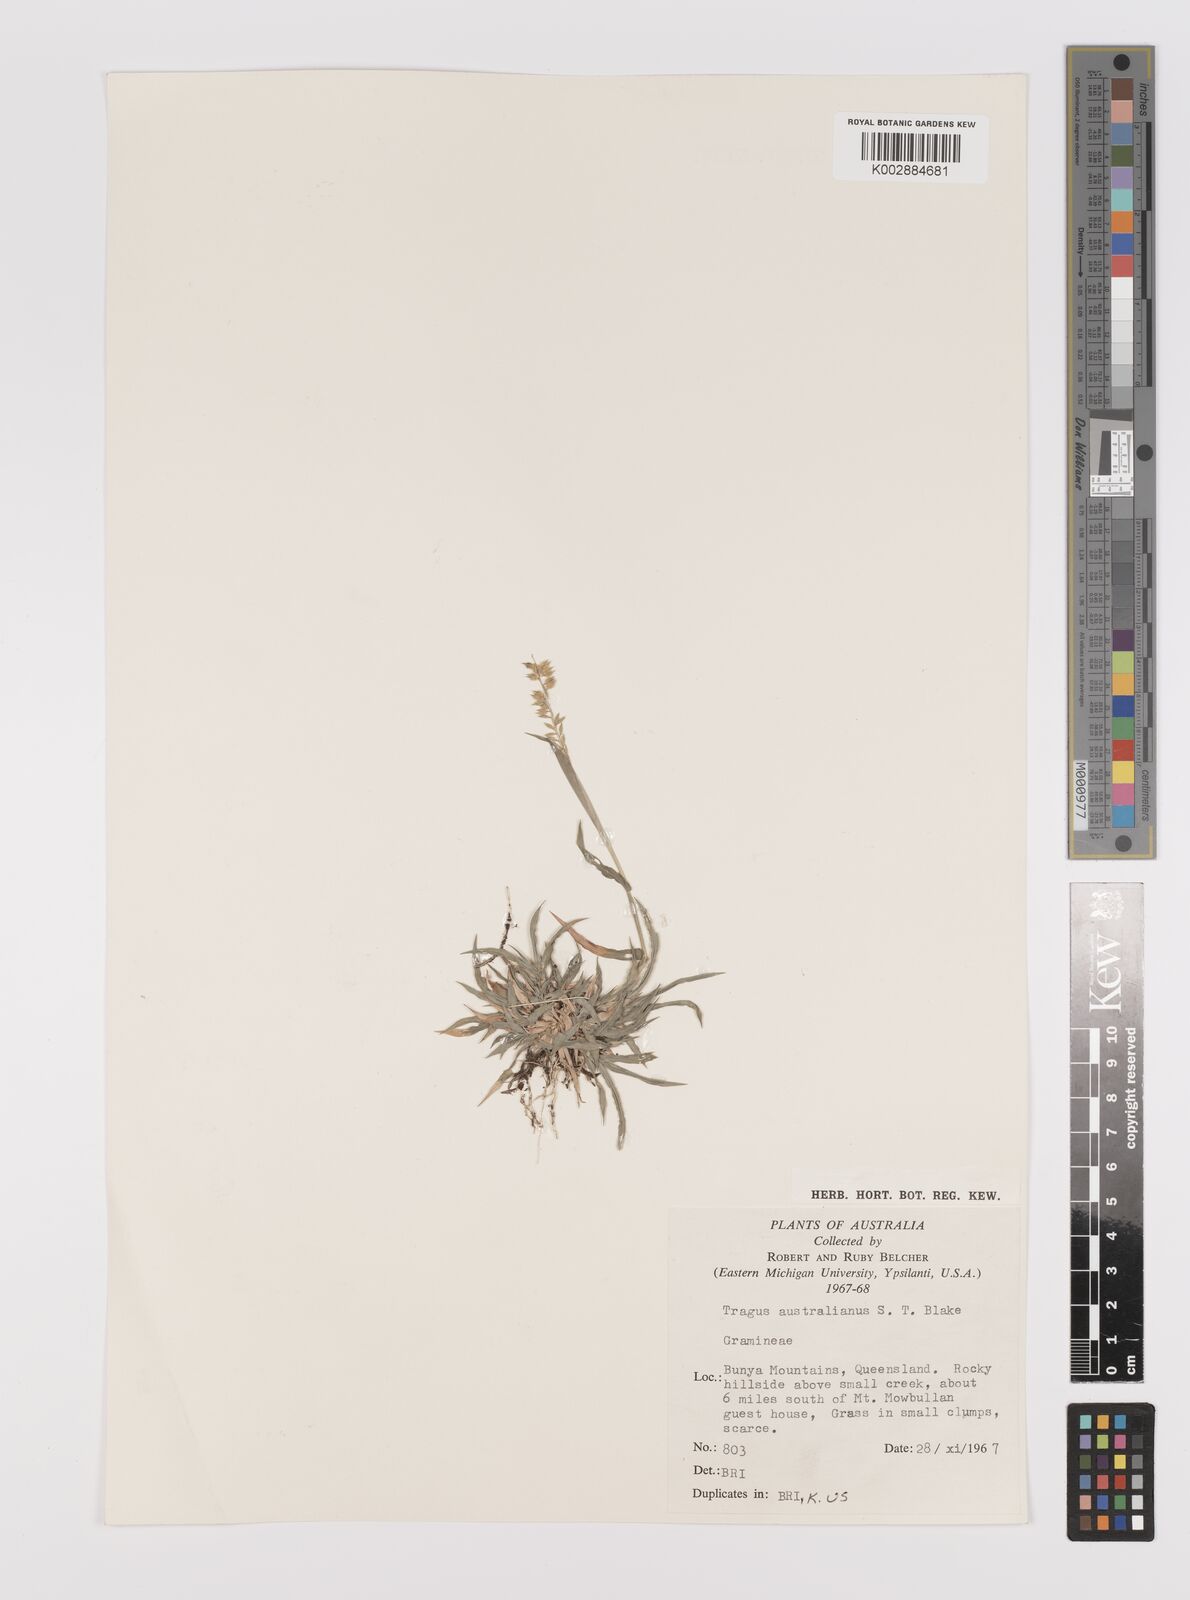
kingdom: Plantae
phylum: Tracheophyta
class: Liliopsida
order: Poales
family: Poaceae
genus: Tragus
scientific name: Tragus australianus
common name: Australian bur-grass
